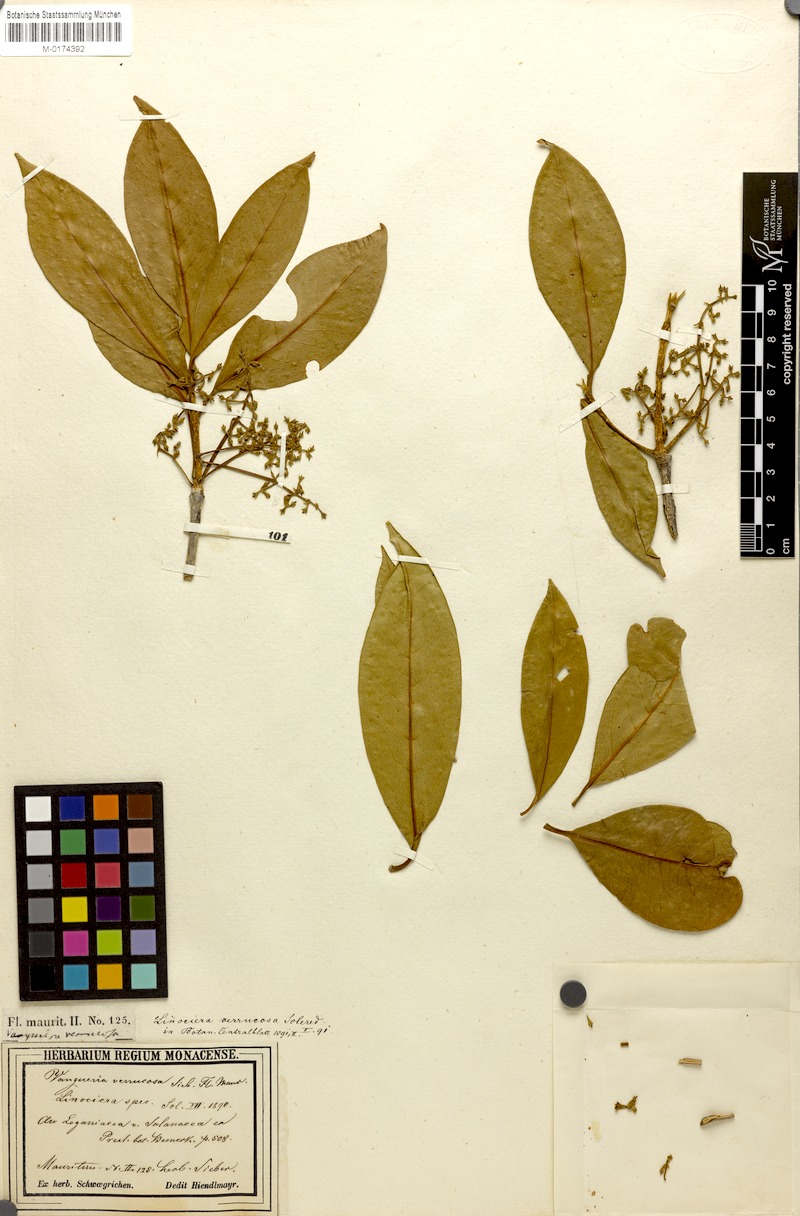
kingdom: Plantae
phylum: Tracheophyta
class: Magnoliopsida
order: Lamiales
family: Oleaceae
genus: Noronhia
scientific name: Noronhia broomeana
